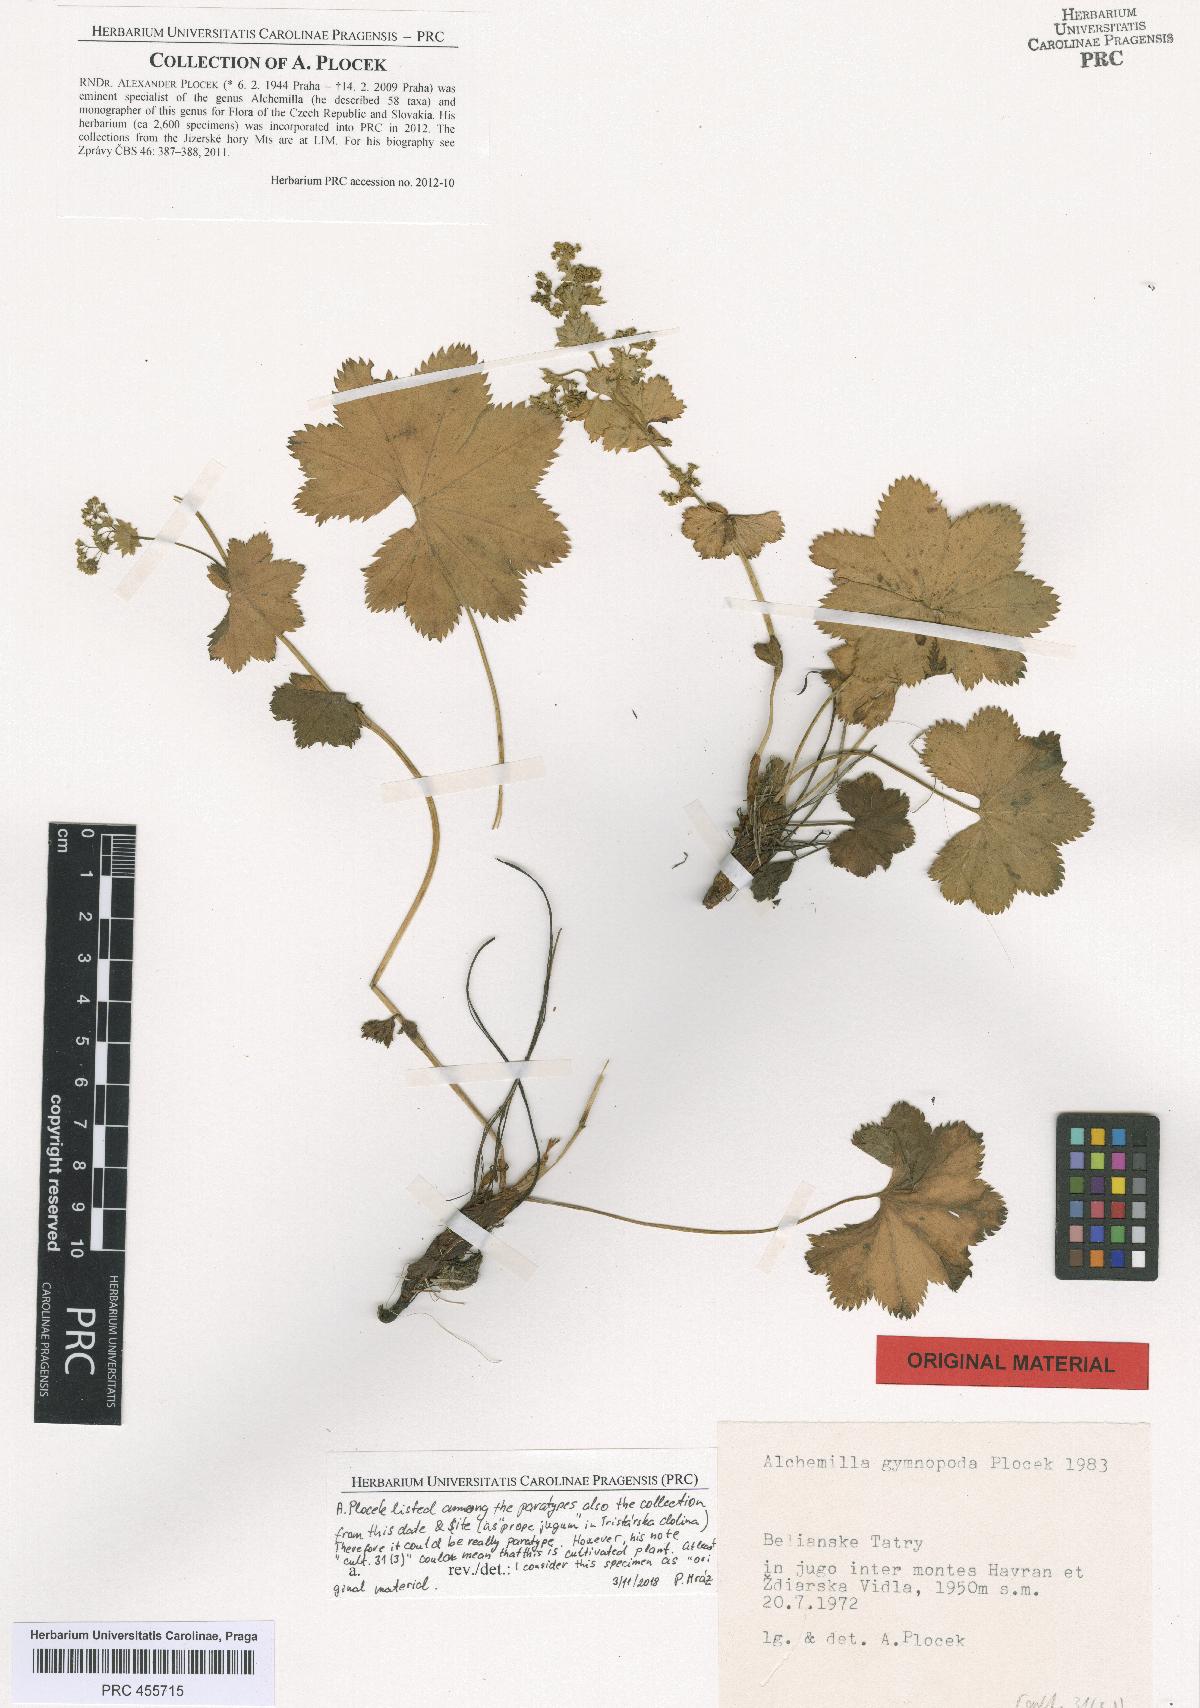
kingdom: Plantae
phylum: Tracheophyta
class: Magnoliopsida
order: Rosales
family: Rosaceae
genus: Alchemilla
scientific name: Alchemilla gymnopoda
